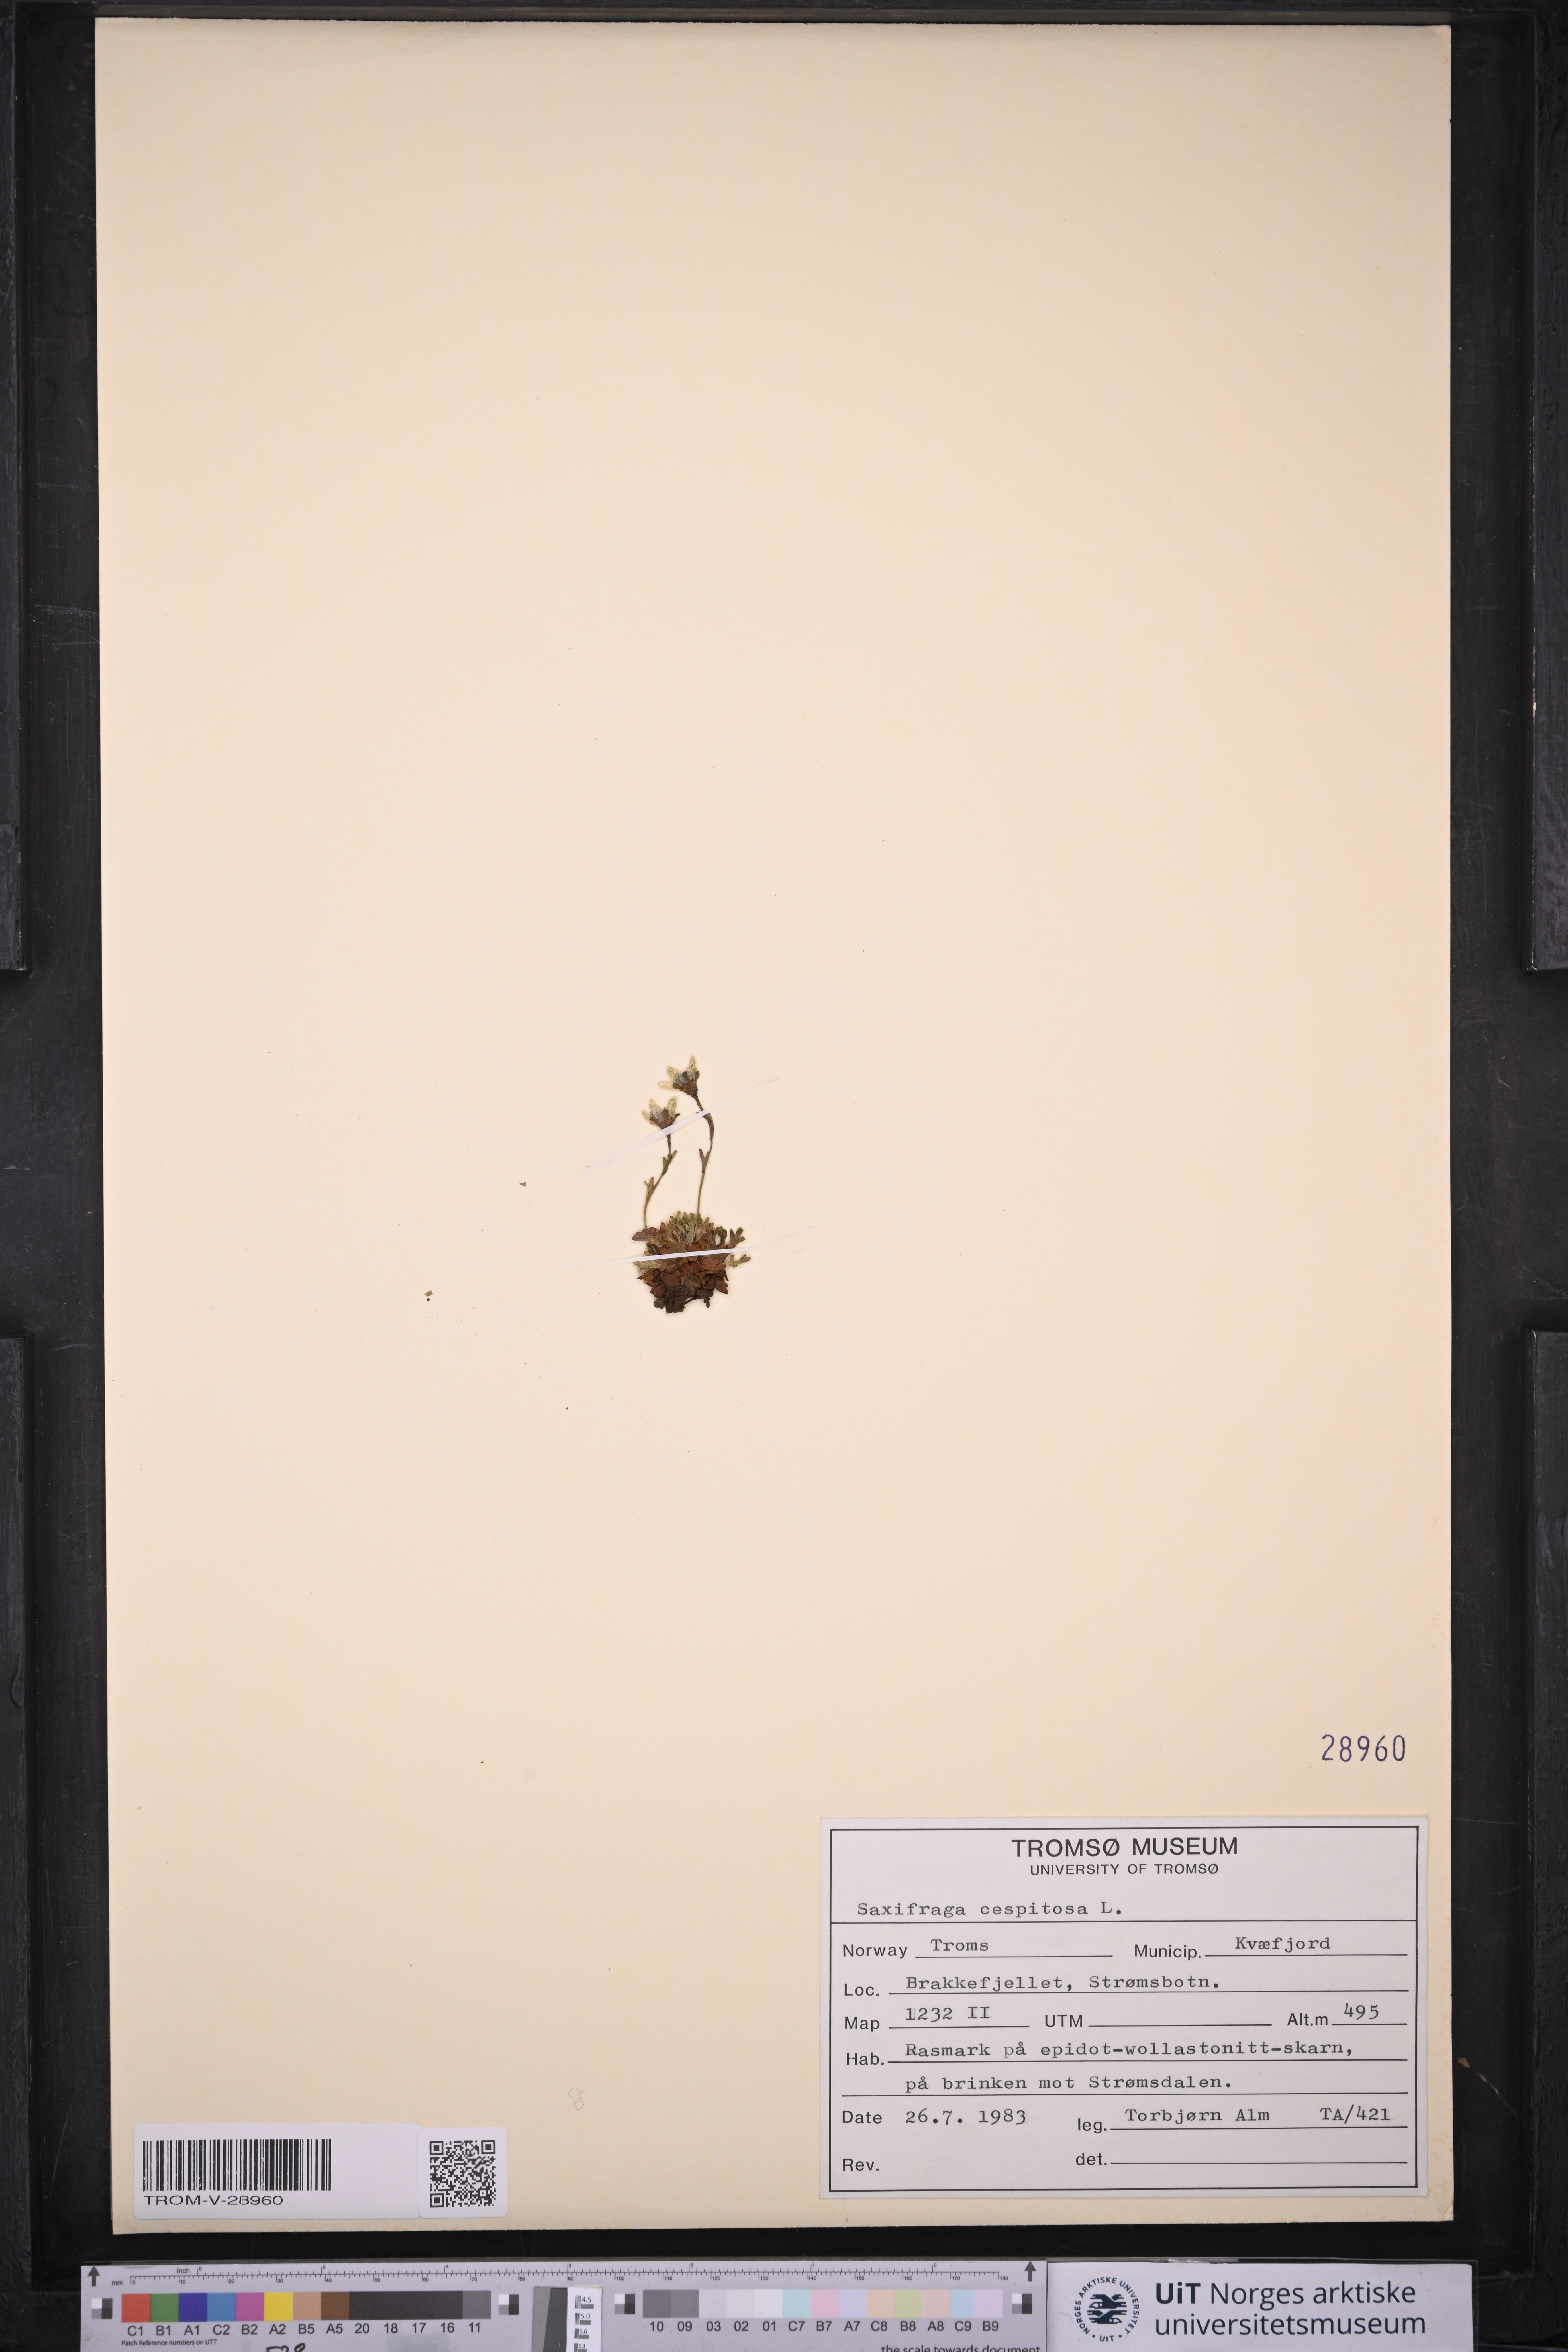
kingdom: Plantae
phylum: Tracheophyta
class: Magnoliopsida
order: Saxifragales
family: Saxifragaceae
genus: Saxifraga
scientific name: Saxifraga cespitosa
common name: Tufted saxifrage
